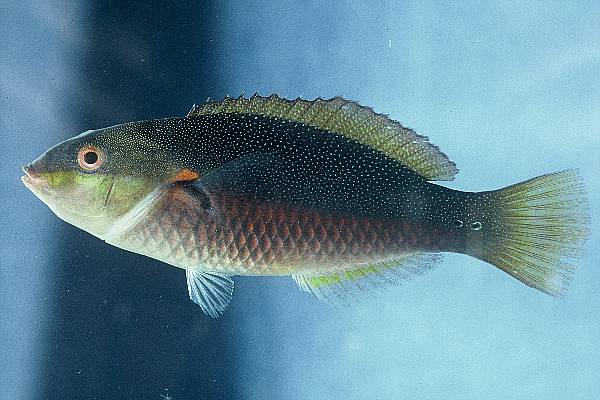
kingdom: Animalia
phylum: Chordata
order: Perciformes
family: Labridae
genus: Stethojulis
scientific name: Stethojulis bandanensis
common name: Red shoulder wrasse
